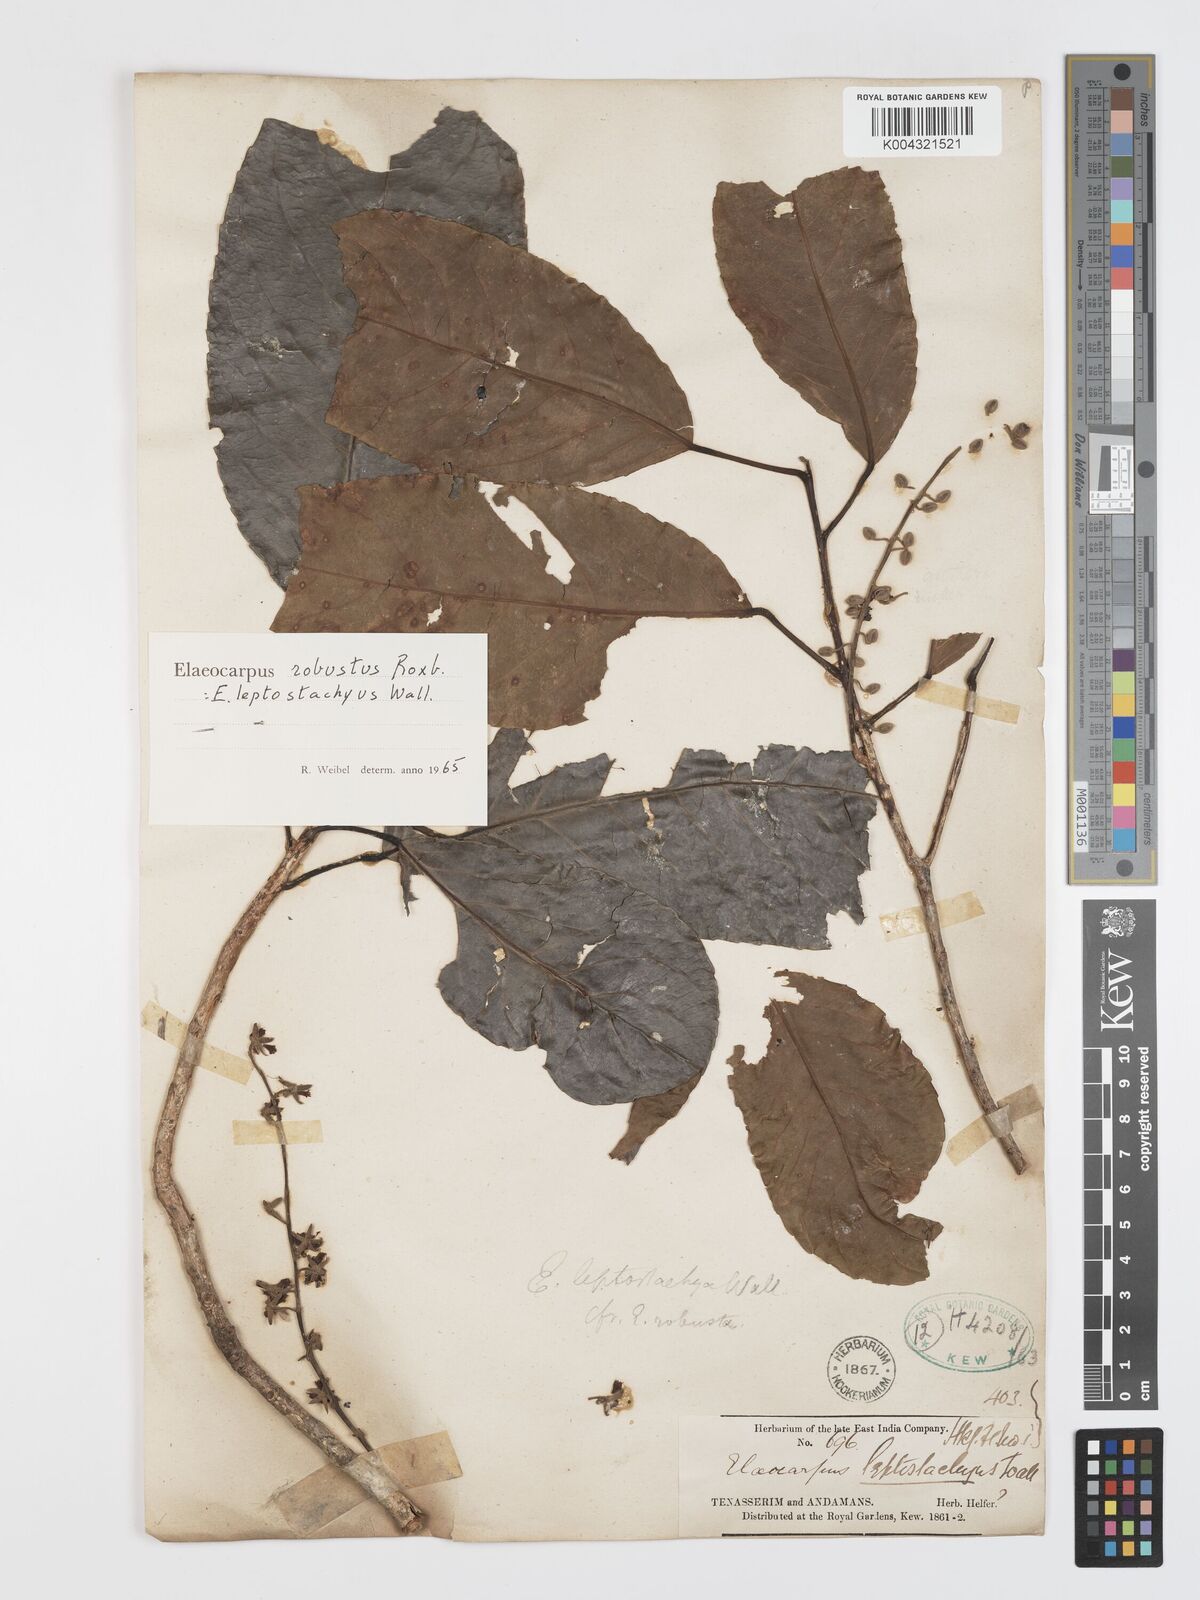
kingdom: Plantae
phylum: Tracheophyta
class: Magnoliopsida
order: Oxalidales
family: Elaeocarpaceae
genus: Elaeocarpus
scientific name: Elaeocarpus robustus
